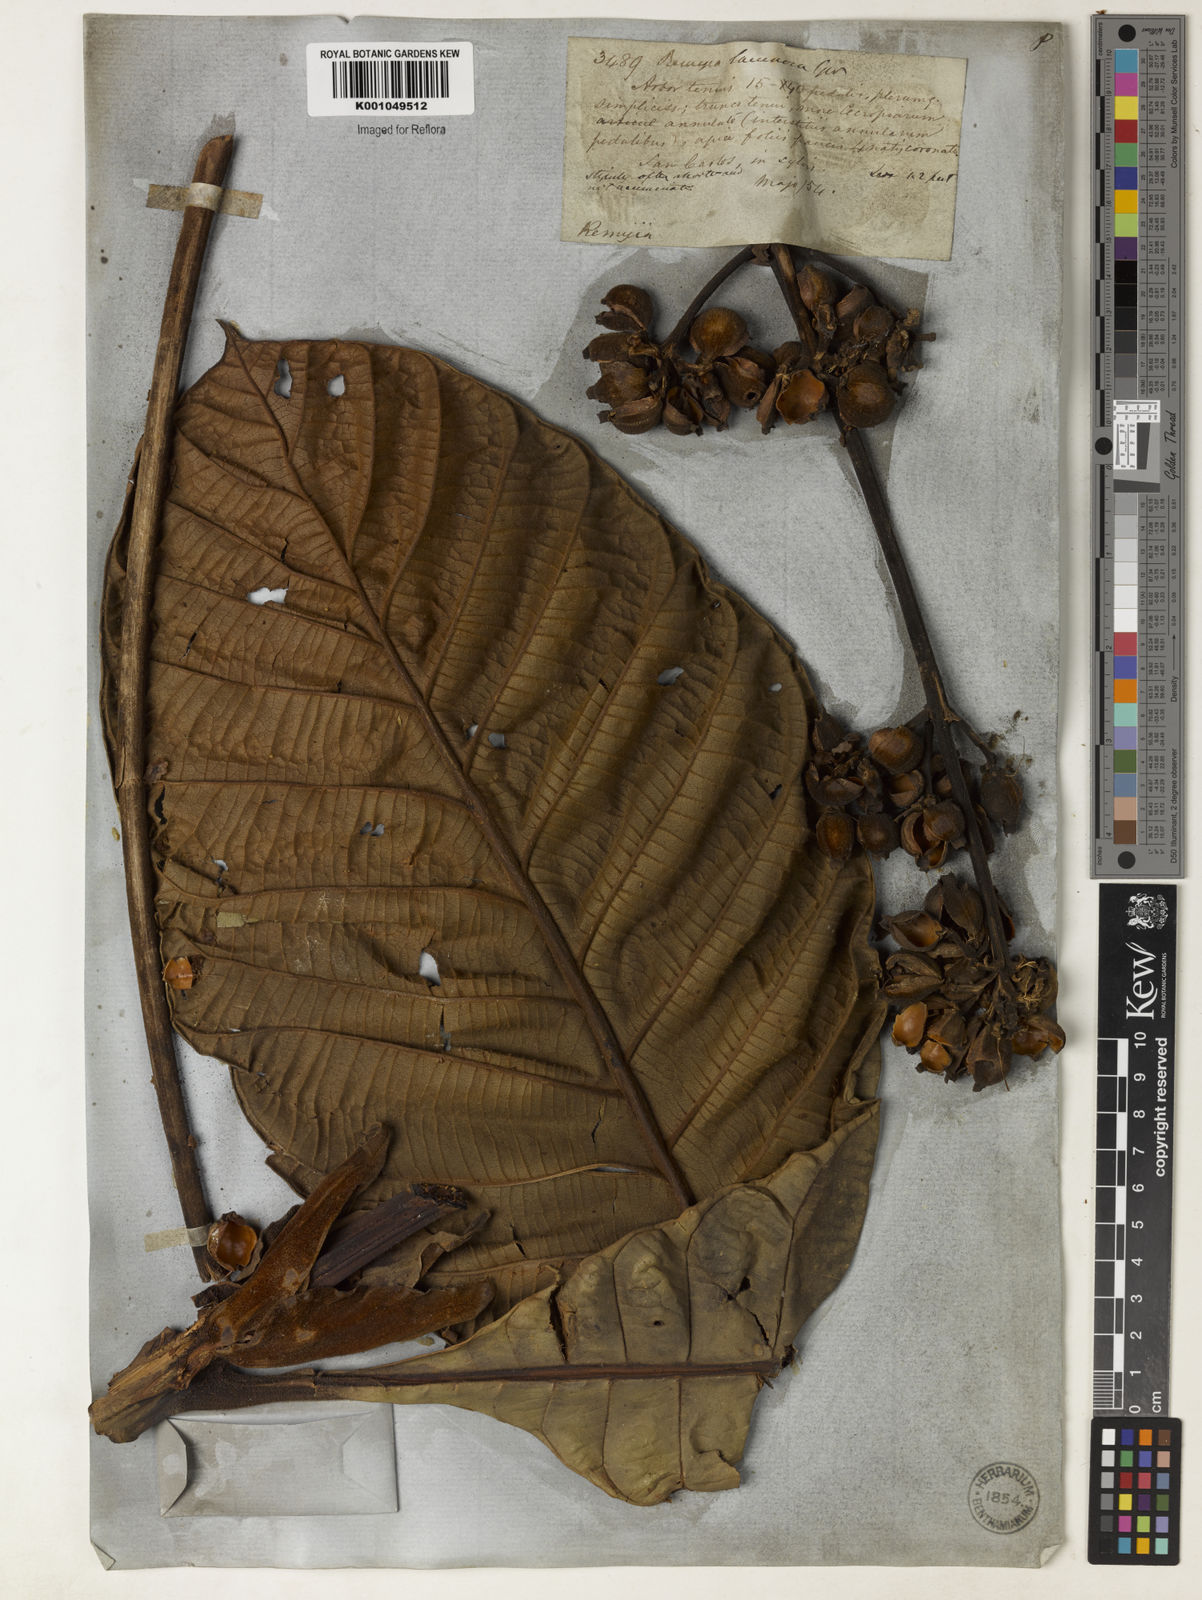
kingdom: Plantae
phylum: Tracheophyta
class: Magnoliopsida
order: Gentianales
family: Rubiaceae
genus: Remijia
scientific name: Remijia lacunosa
